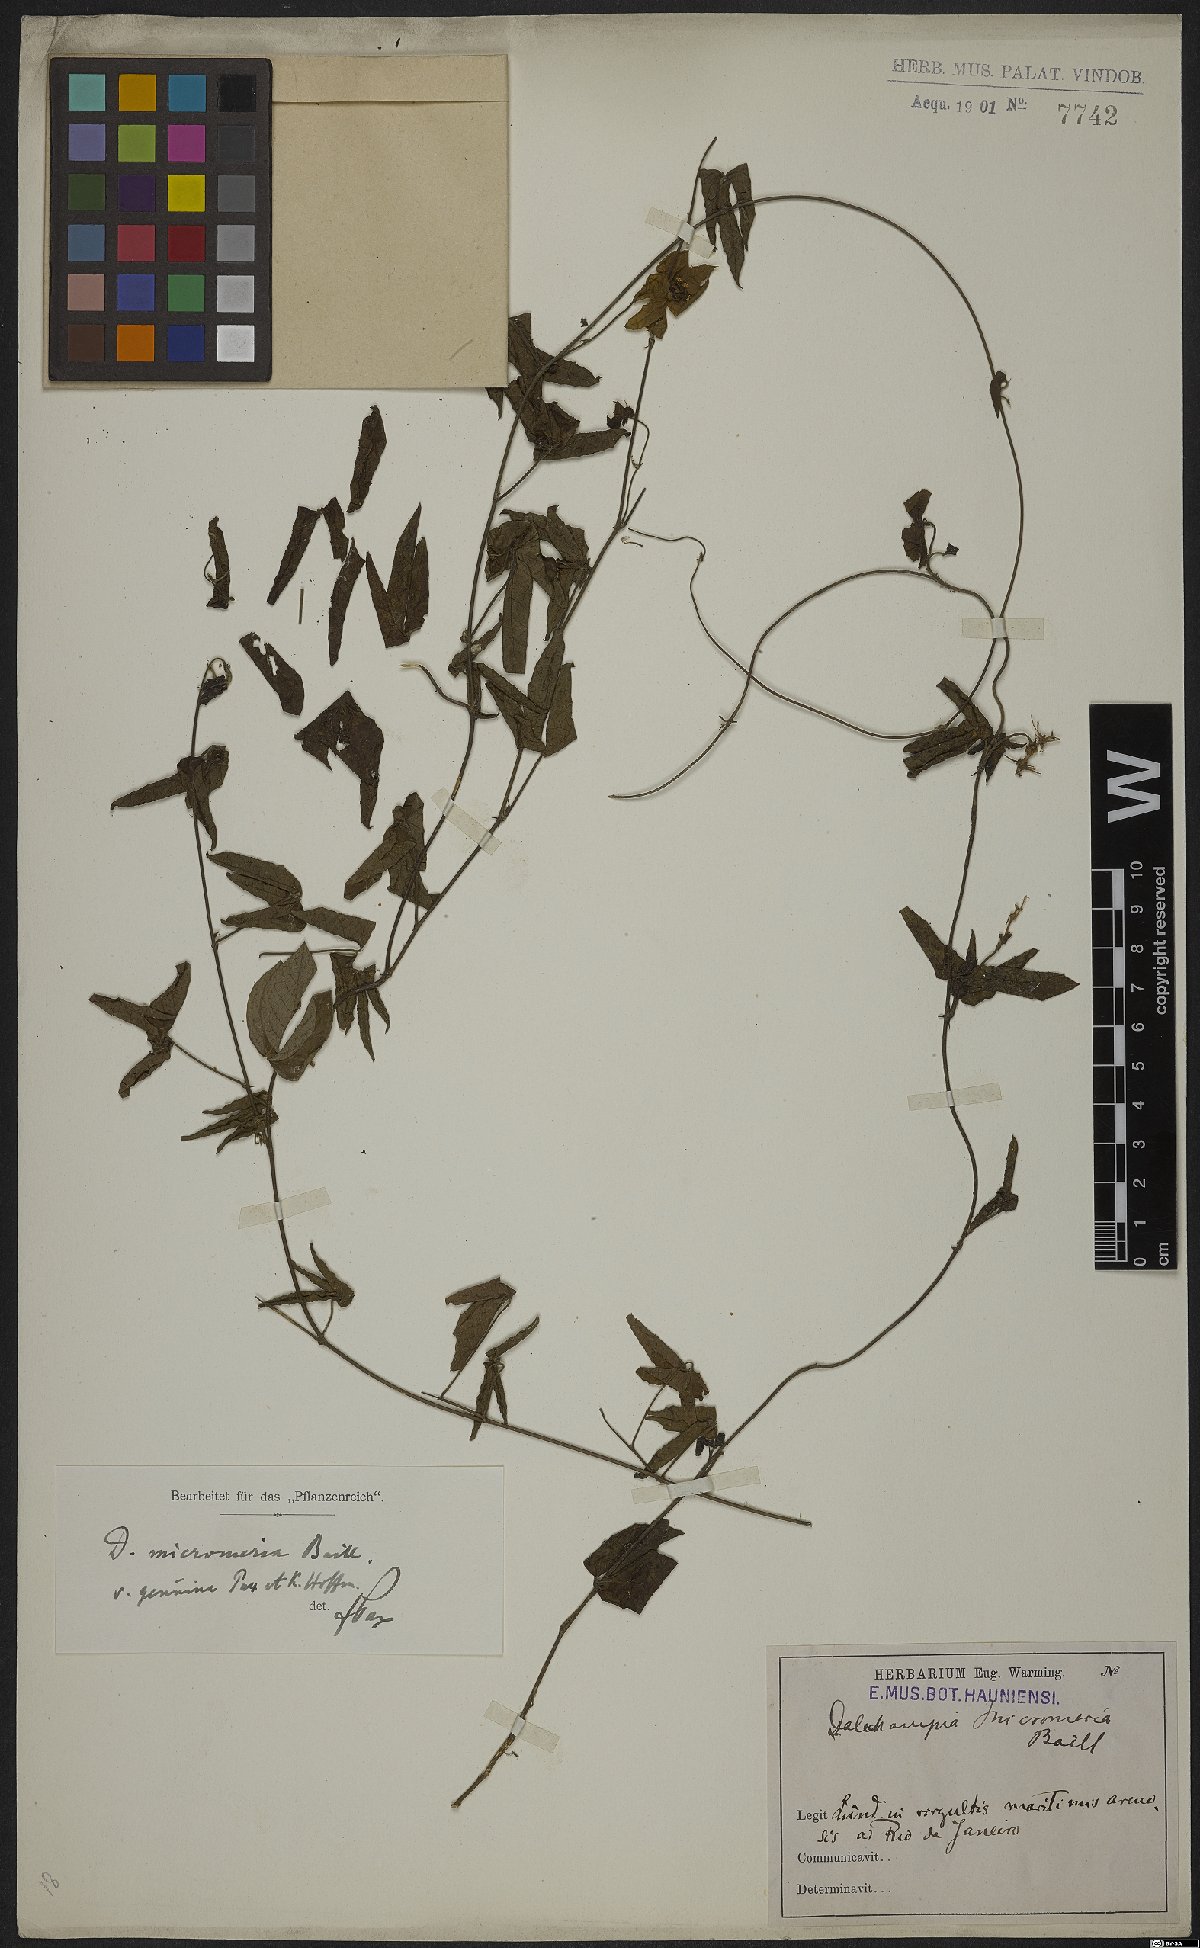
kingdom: Plantae
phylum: Tracheophyta
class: Magnoliopsida
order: Malpighiales
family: Euphorbiaceae
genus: Dalechampia
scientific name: Dalechampia micromeria
